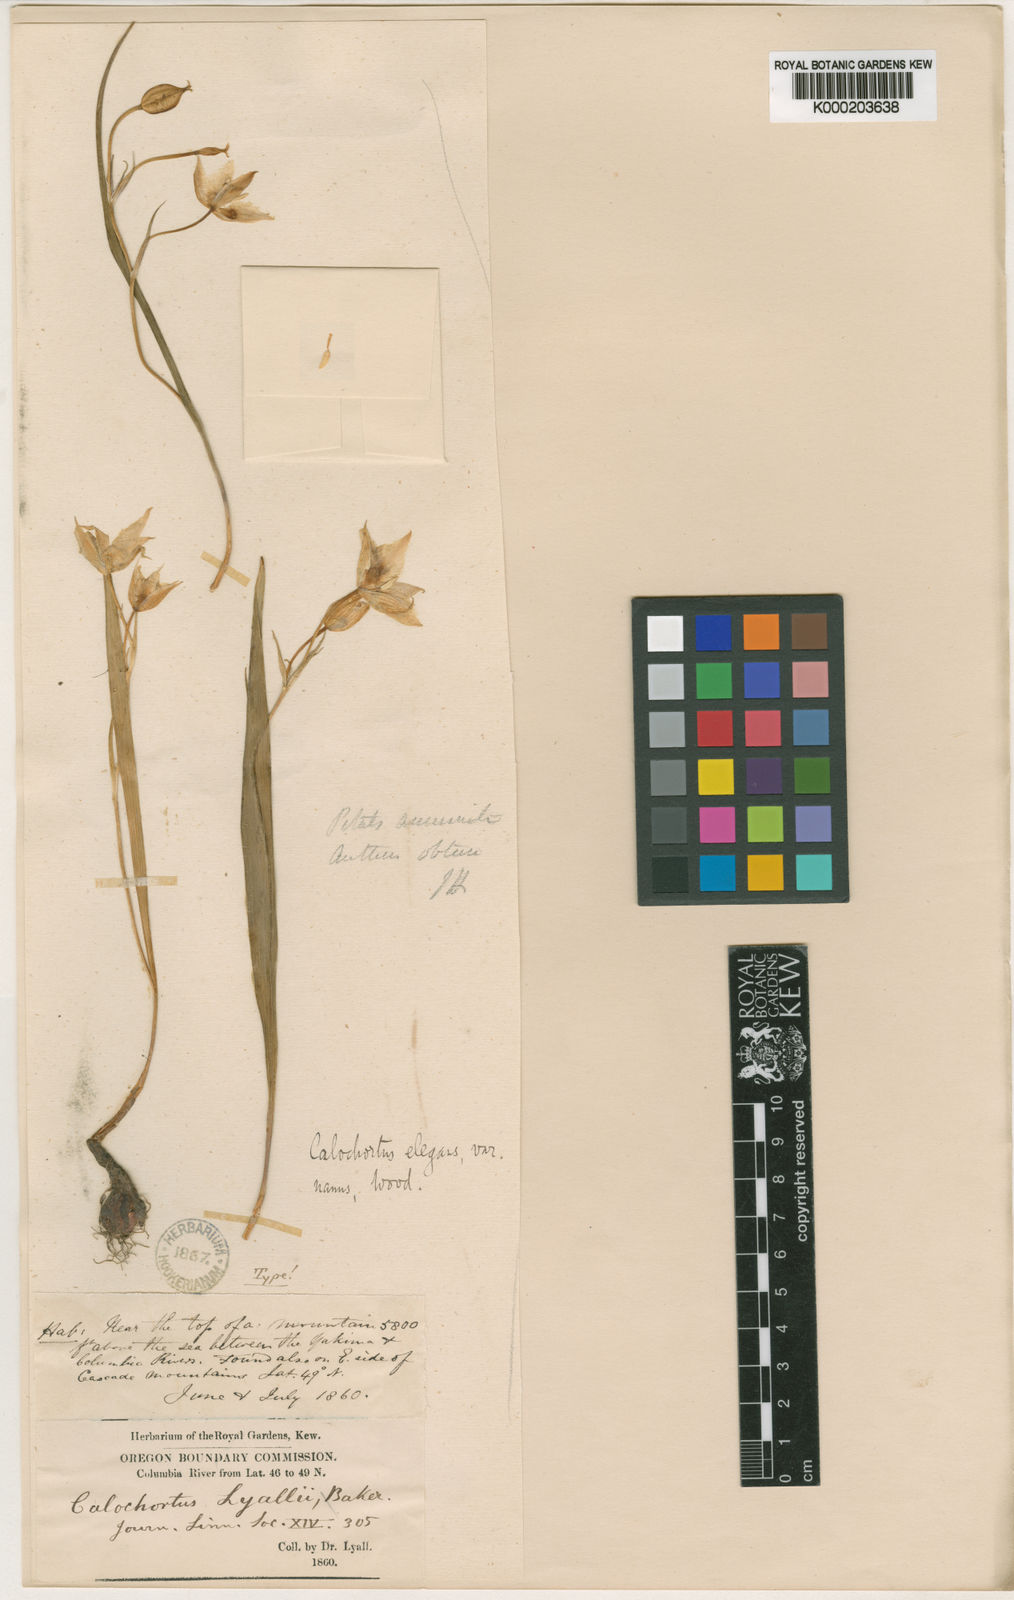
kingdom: Plantae
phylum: Tracheophyta
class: Liliopsida
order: Liliales
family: Liliaceae
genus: Calochortus
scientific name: Calochortus lyallii
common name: Lyall's mariposa lily
